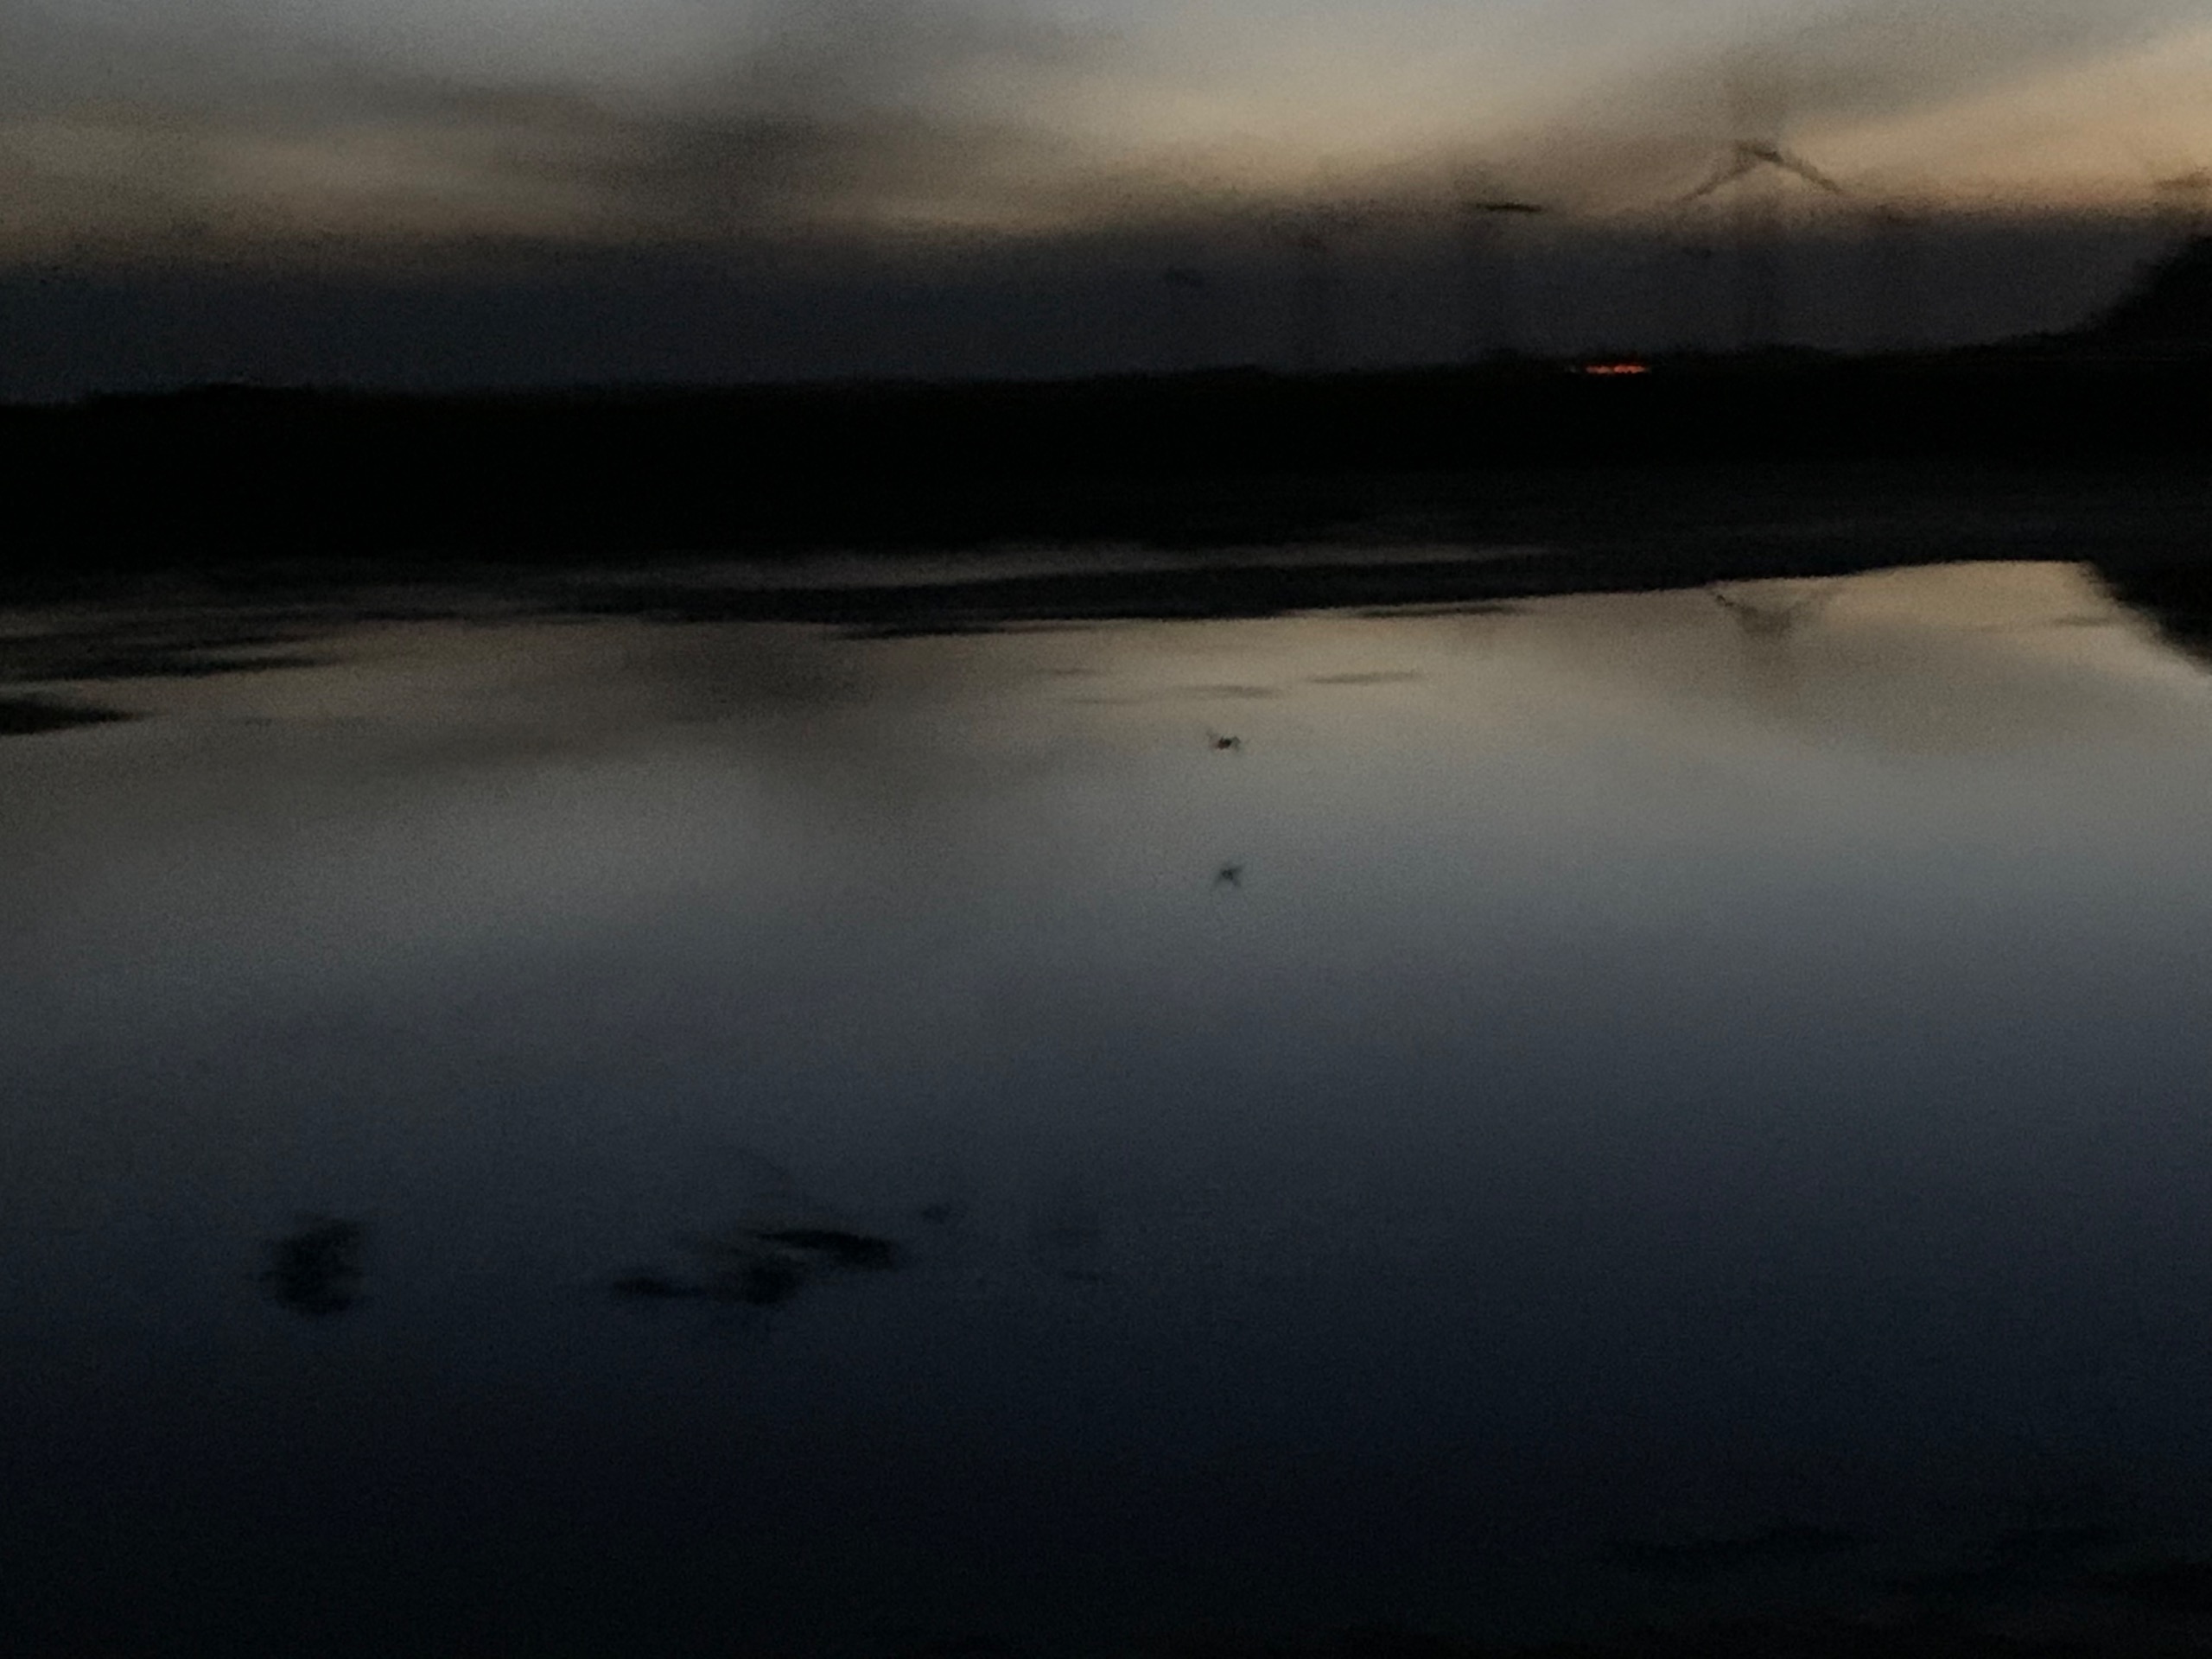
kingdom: Animalia
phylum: Chordata
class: Mammalia
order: Chiroptera
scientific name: Chiroptera
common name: Flagermus
